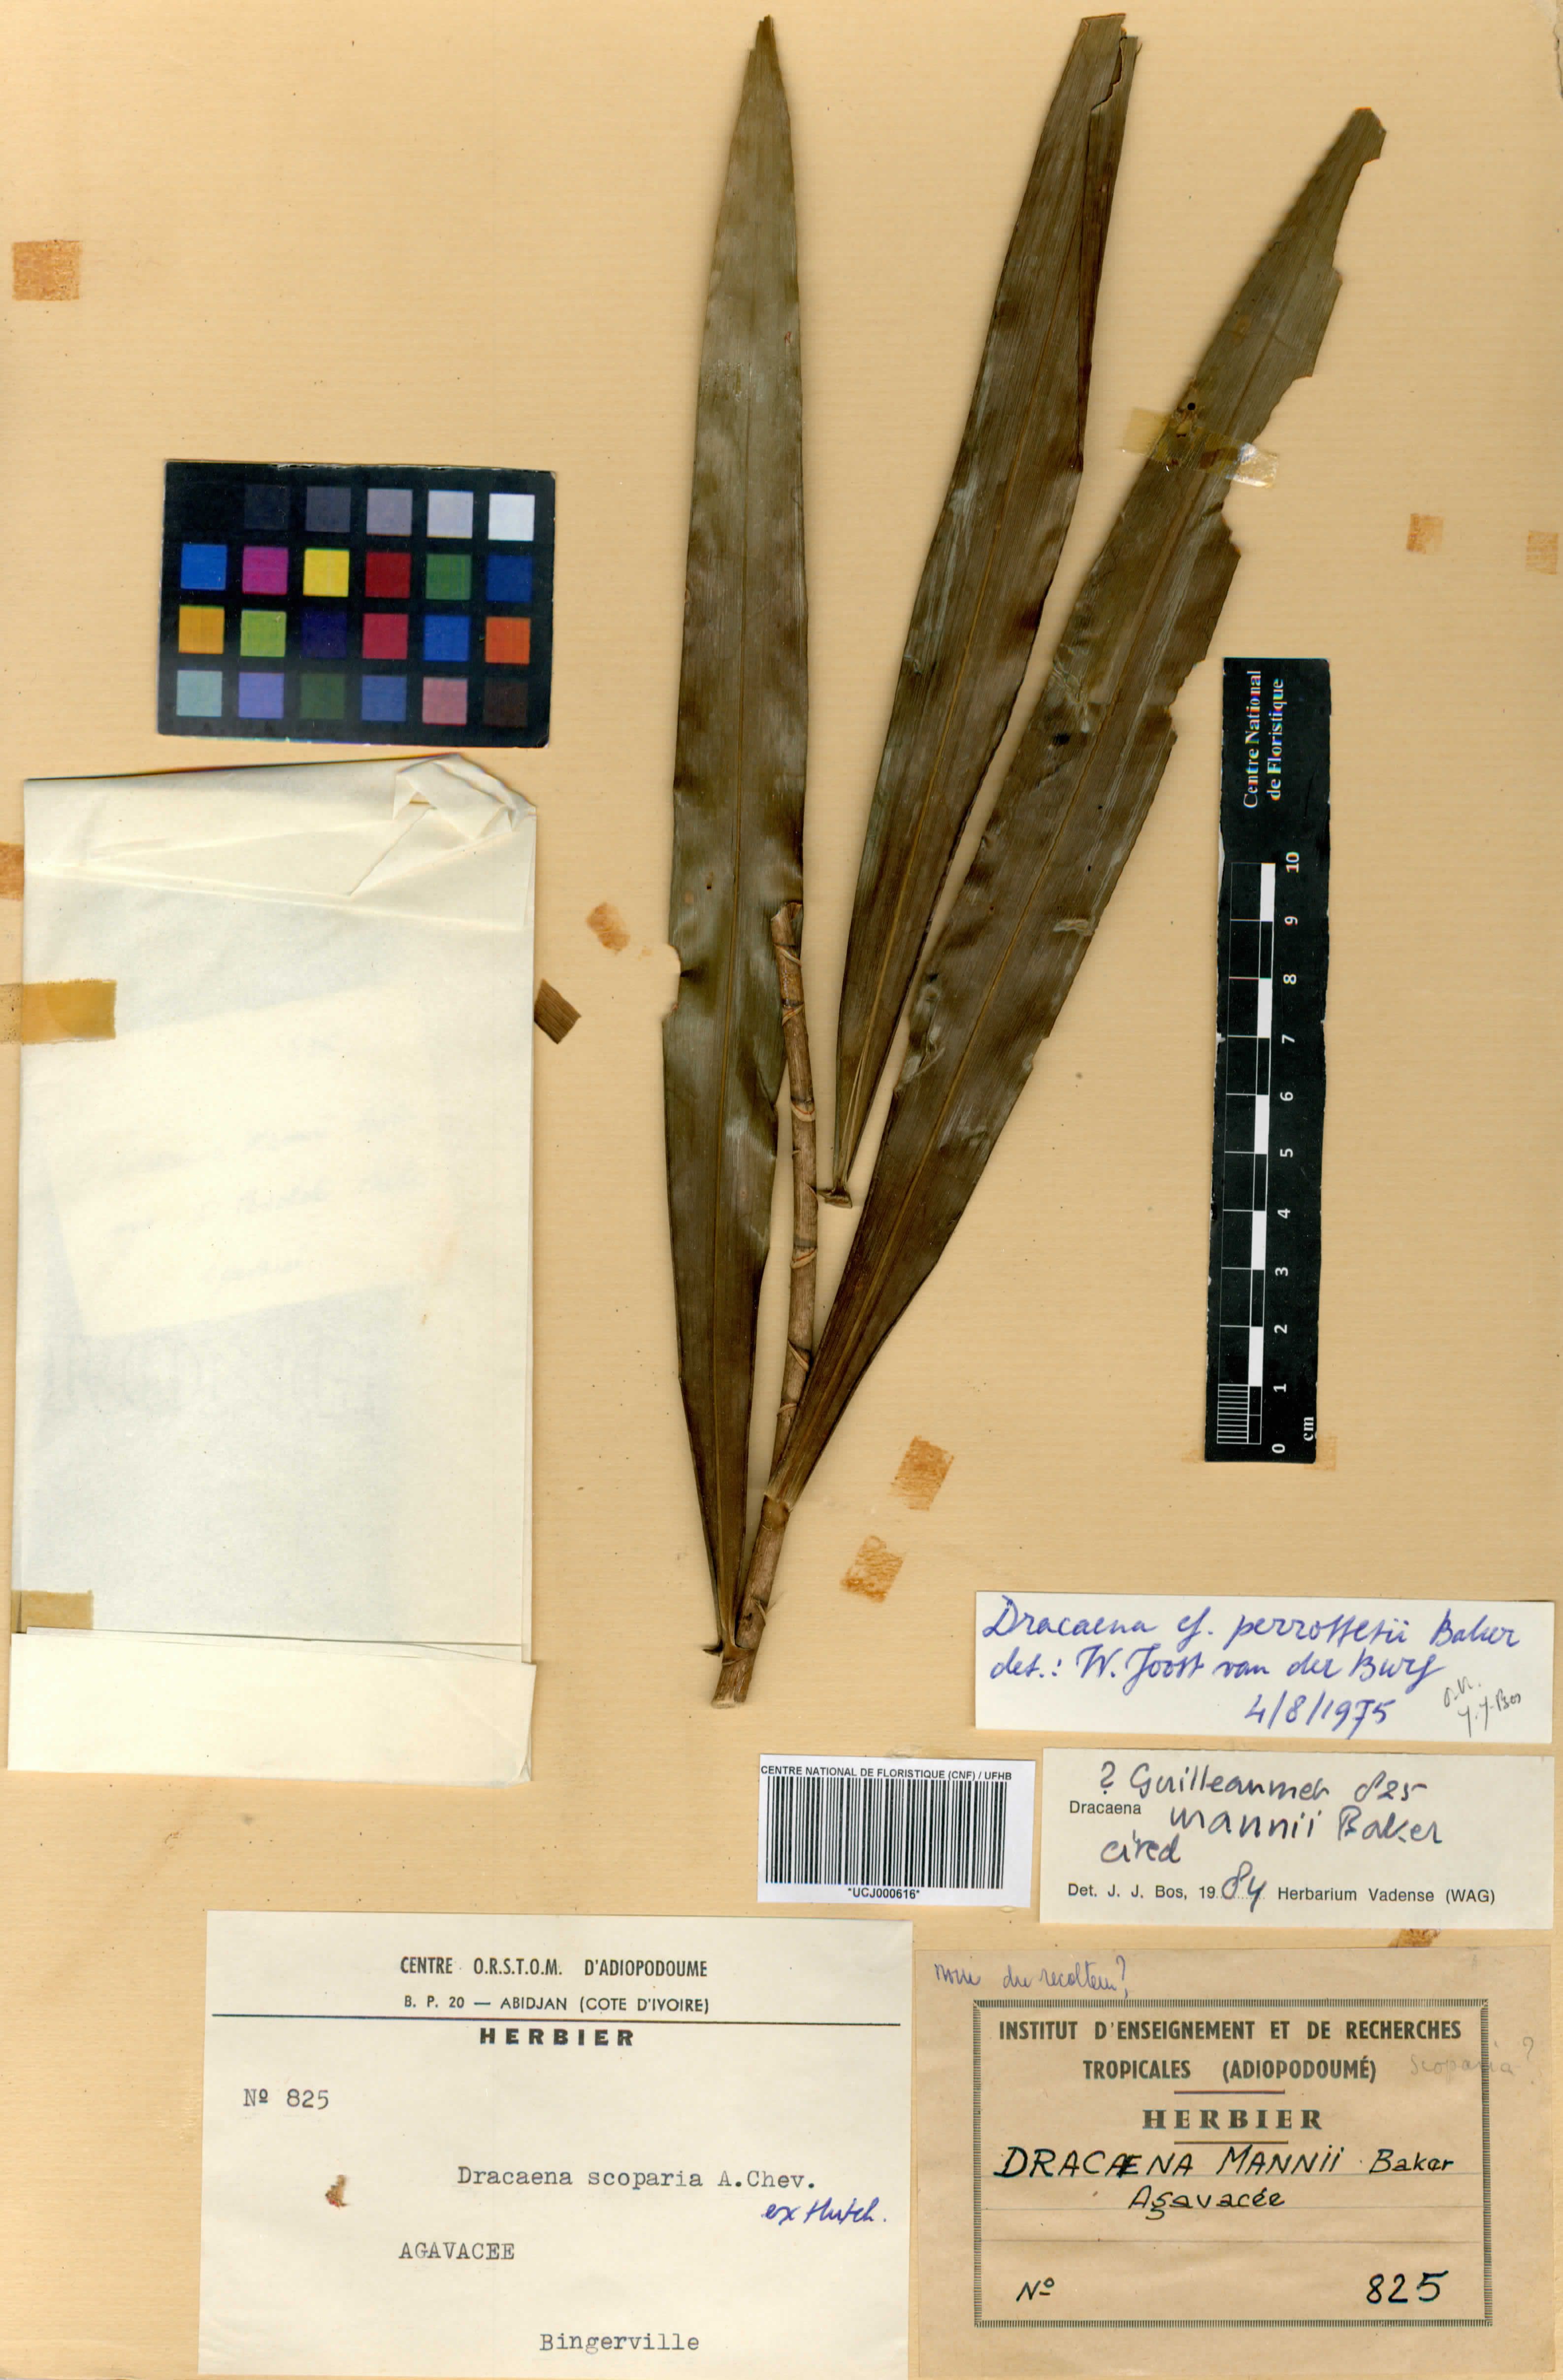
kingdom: Plantae
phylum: Tracheophyta
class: Liliopsida
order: Asparagales
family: Asparagaceae
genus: Dracaena
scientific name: Dracaena cerasifera
